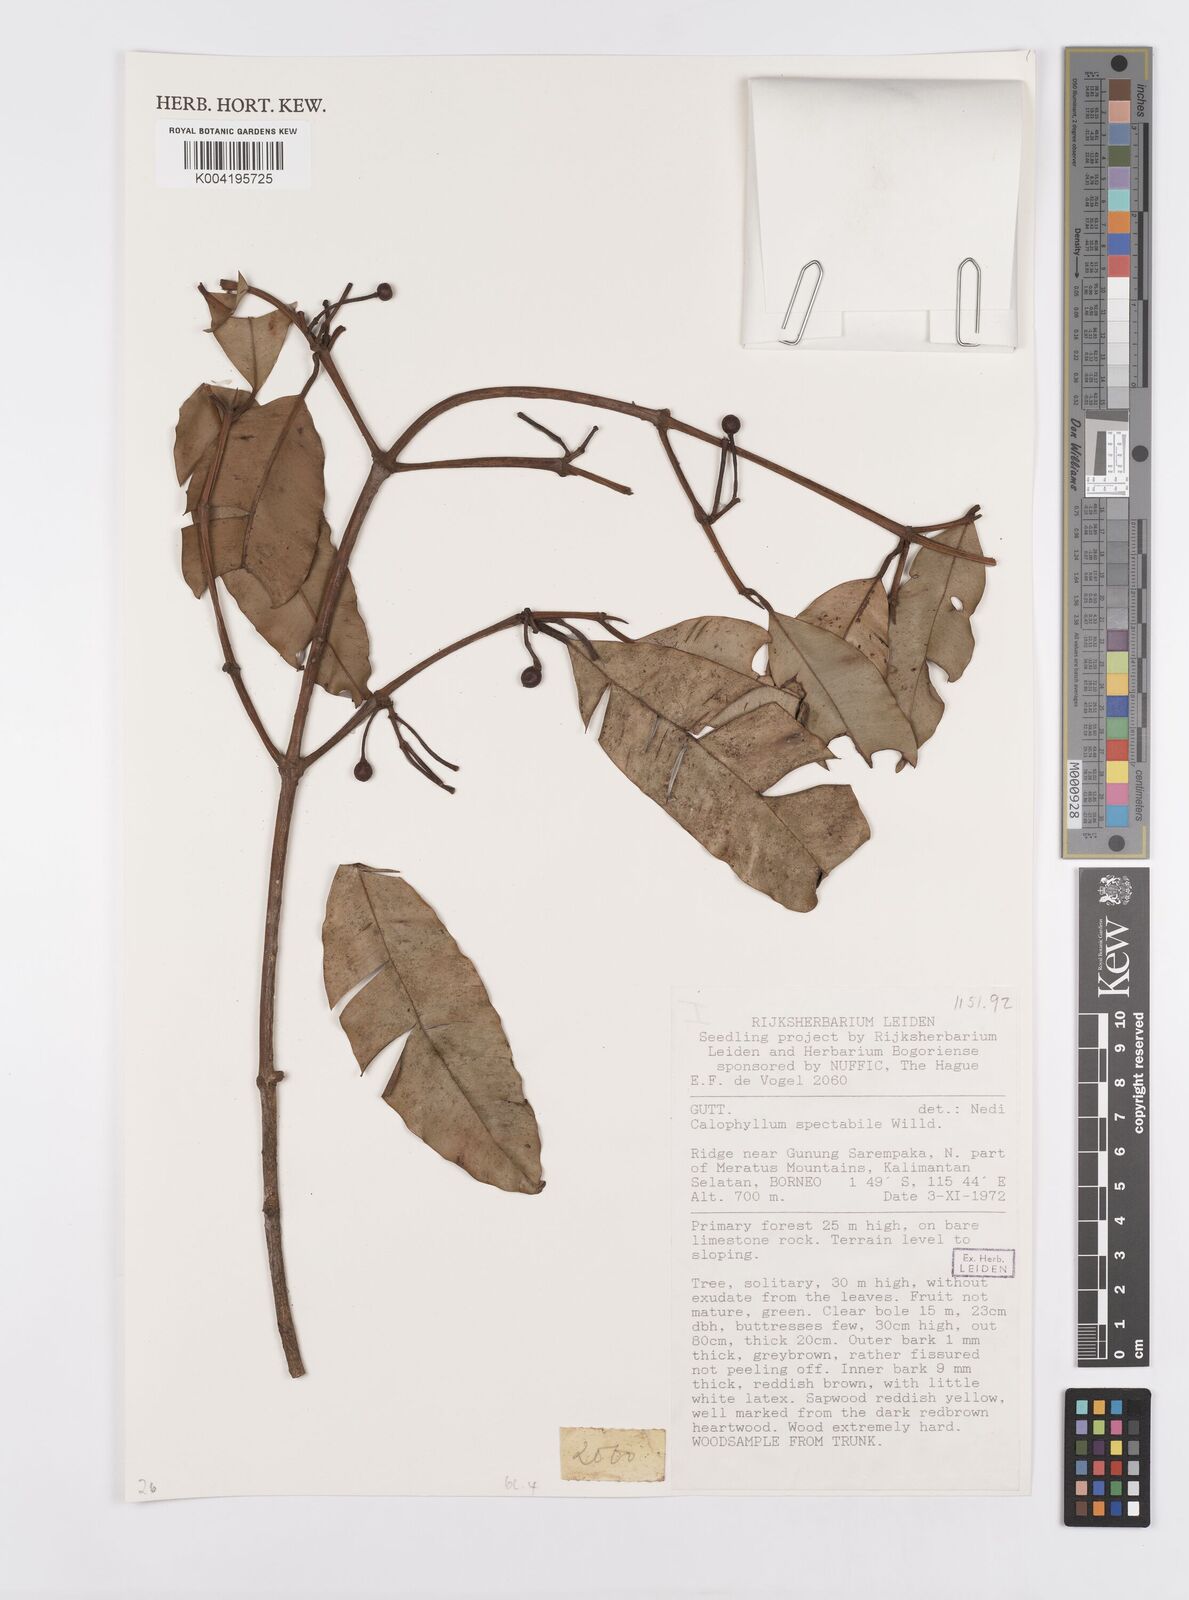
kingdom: Plantae
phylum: Tracheophyta
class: Magnoliopsida
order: Malpighiales
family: Calophyllaceae
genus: Calophyllum
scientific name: Calophyllum soulattri
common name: Bitangoor boonot
